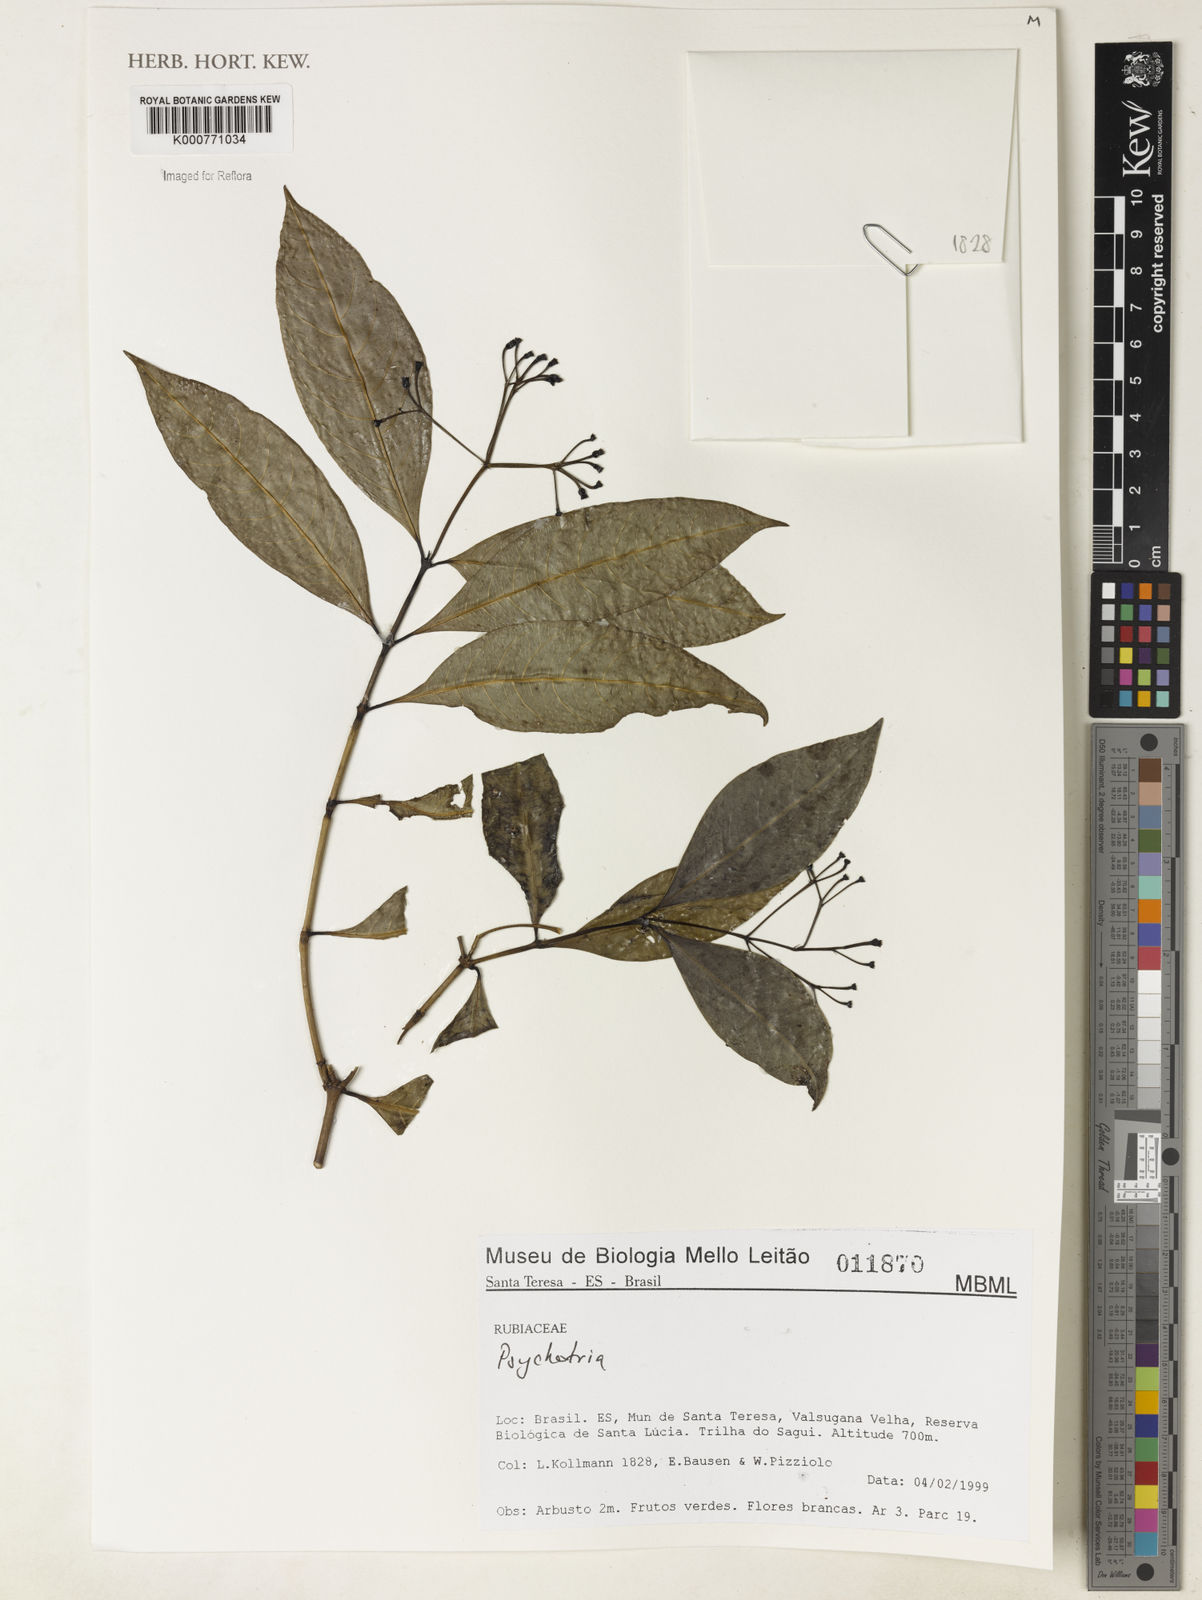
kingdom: Plantae
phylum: Tracheophyta
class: Magnoliopsida
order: Gentianales
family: Rubiaceae
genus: Psychotria
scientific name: Psychotria
